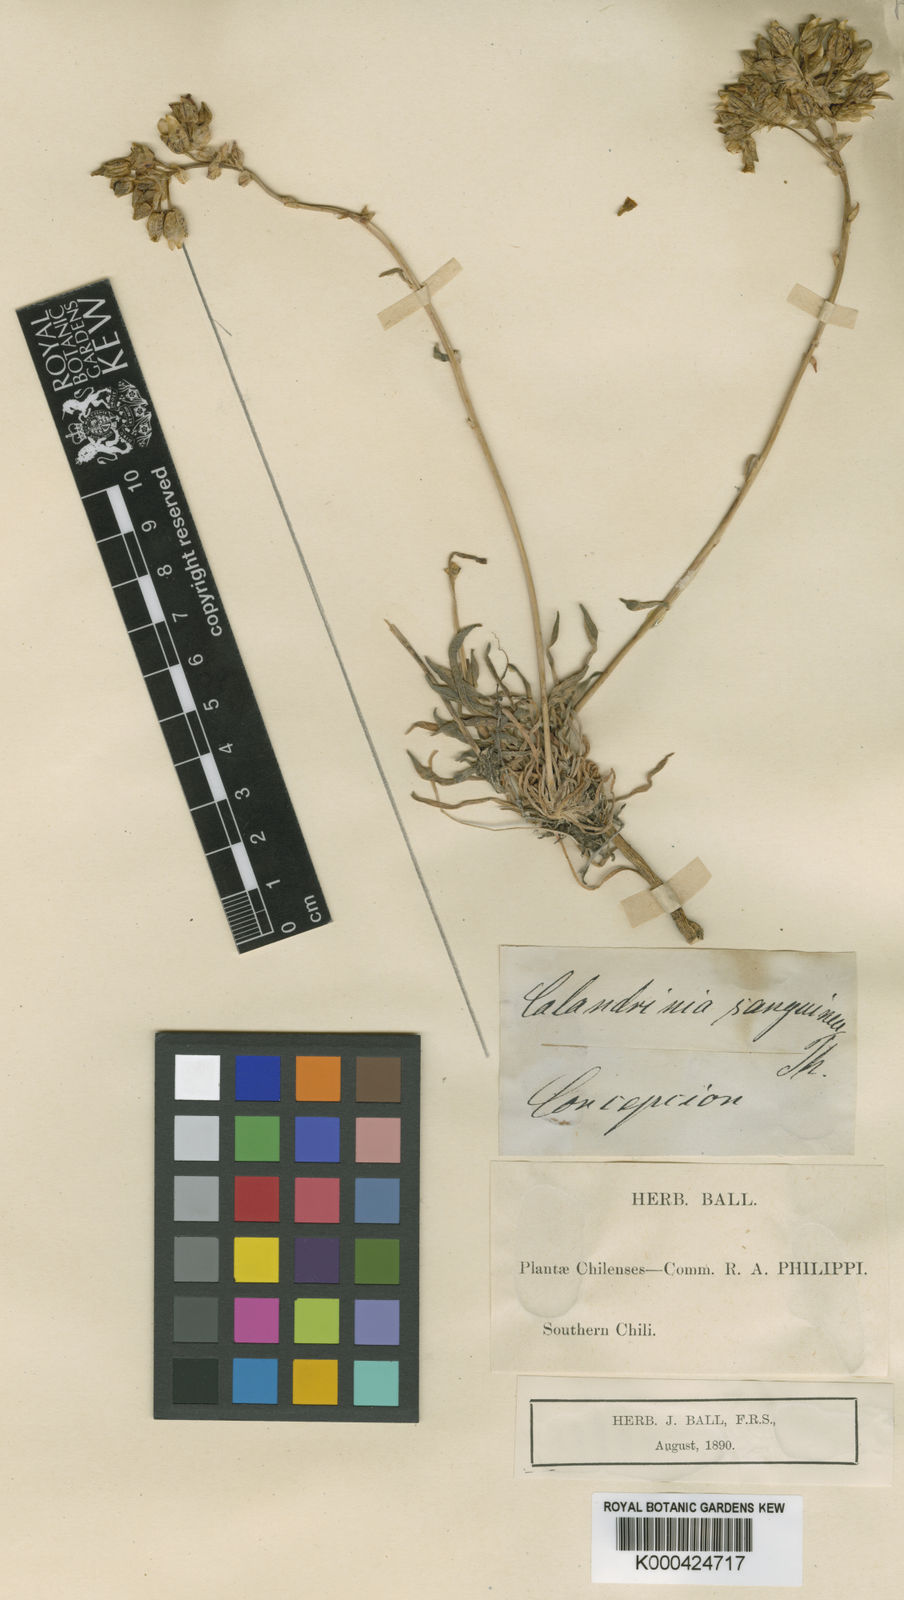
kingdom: Plantae
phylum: Tracheophyta
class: Magnoliopsida
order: Caryophyllales
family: Montiaceae
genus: Cistanthe
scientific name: Cistanthe
